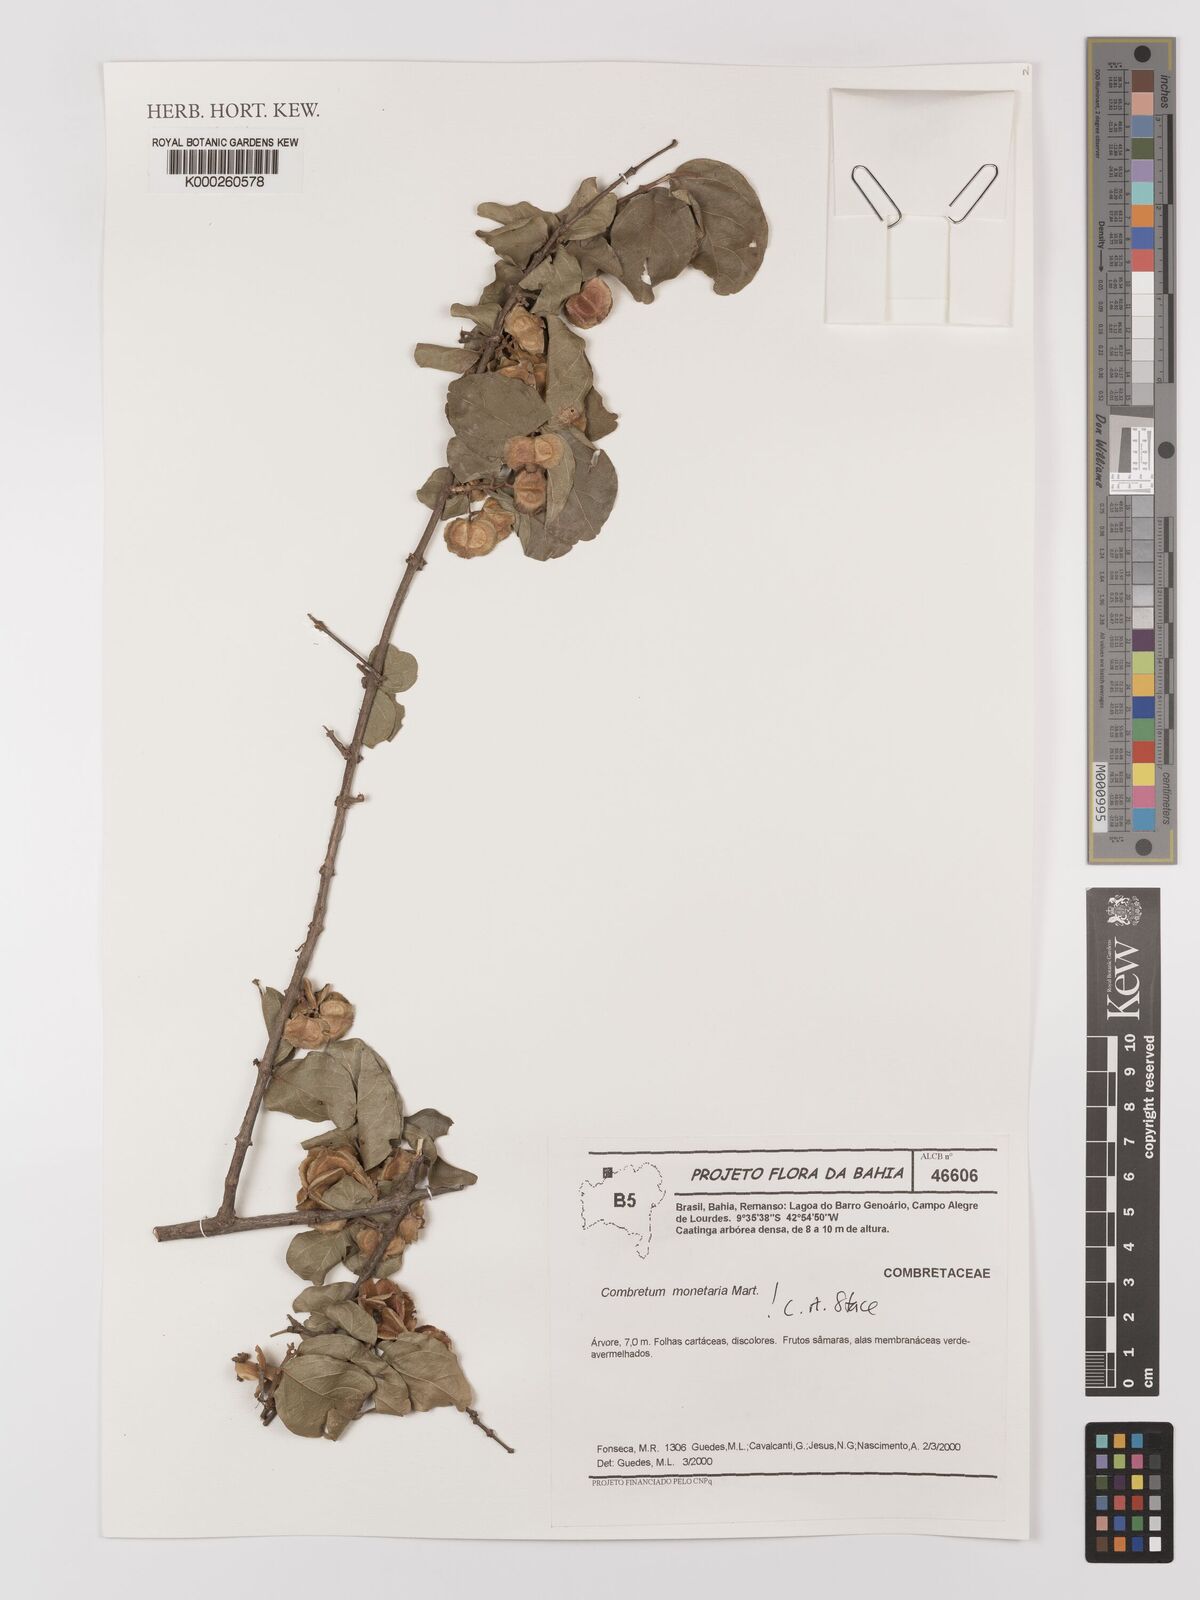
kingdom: Plantae
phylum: Tracheophyta
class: Magnoliopsida
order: Myrtales
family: Combretaceae
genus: Combretum
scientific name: Combretum monetaria
